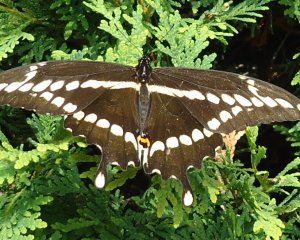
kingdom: Animalia
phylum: Arthropoda
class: Insecta
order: Lepidoptera
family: Papilionidae
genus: Papilio
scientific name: Papilio cresphontes
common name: Eastern Giant Swallowtail
